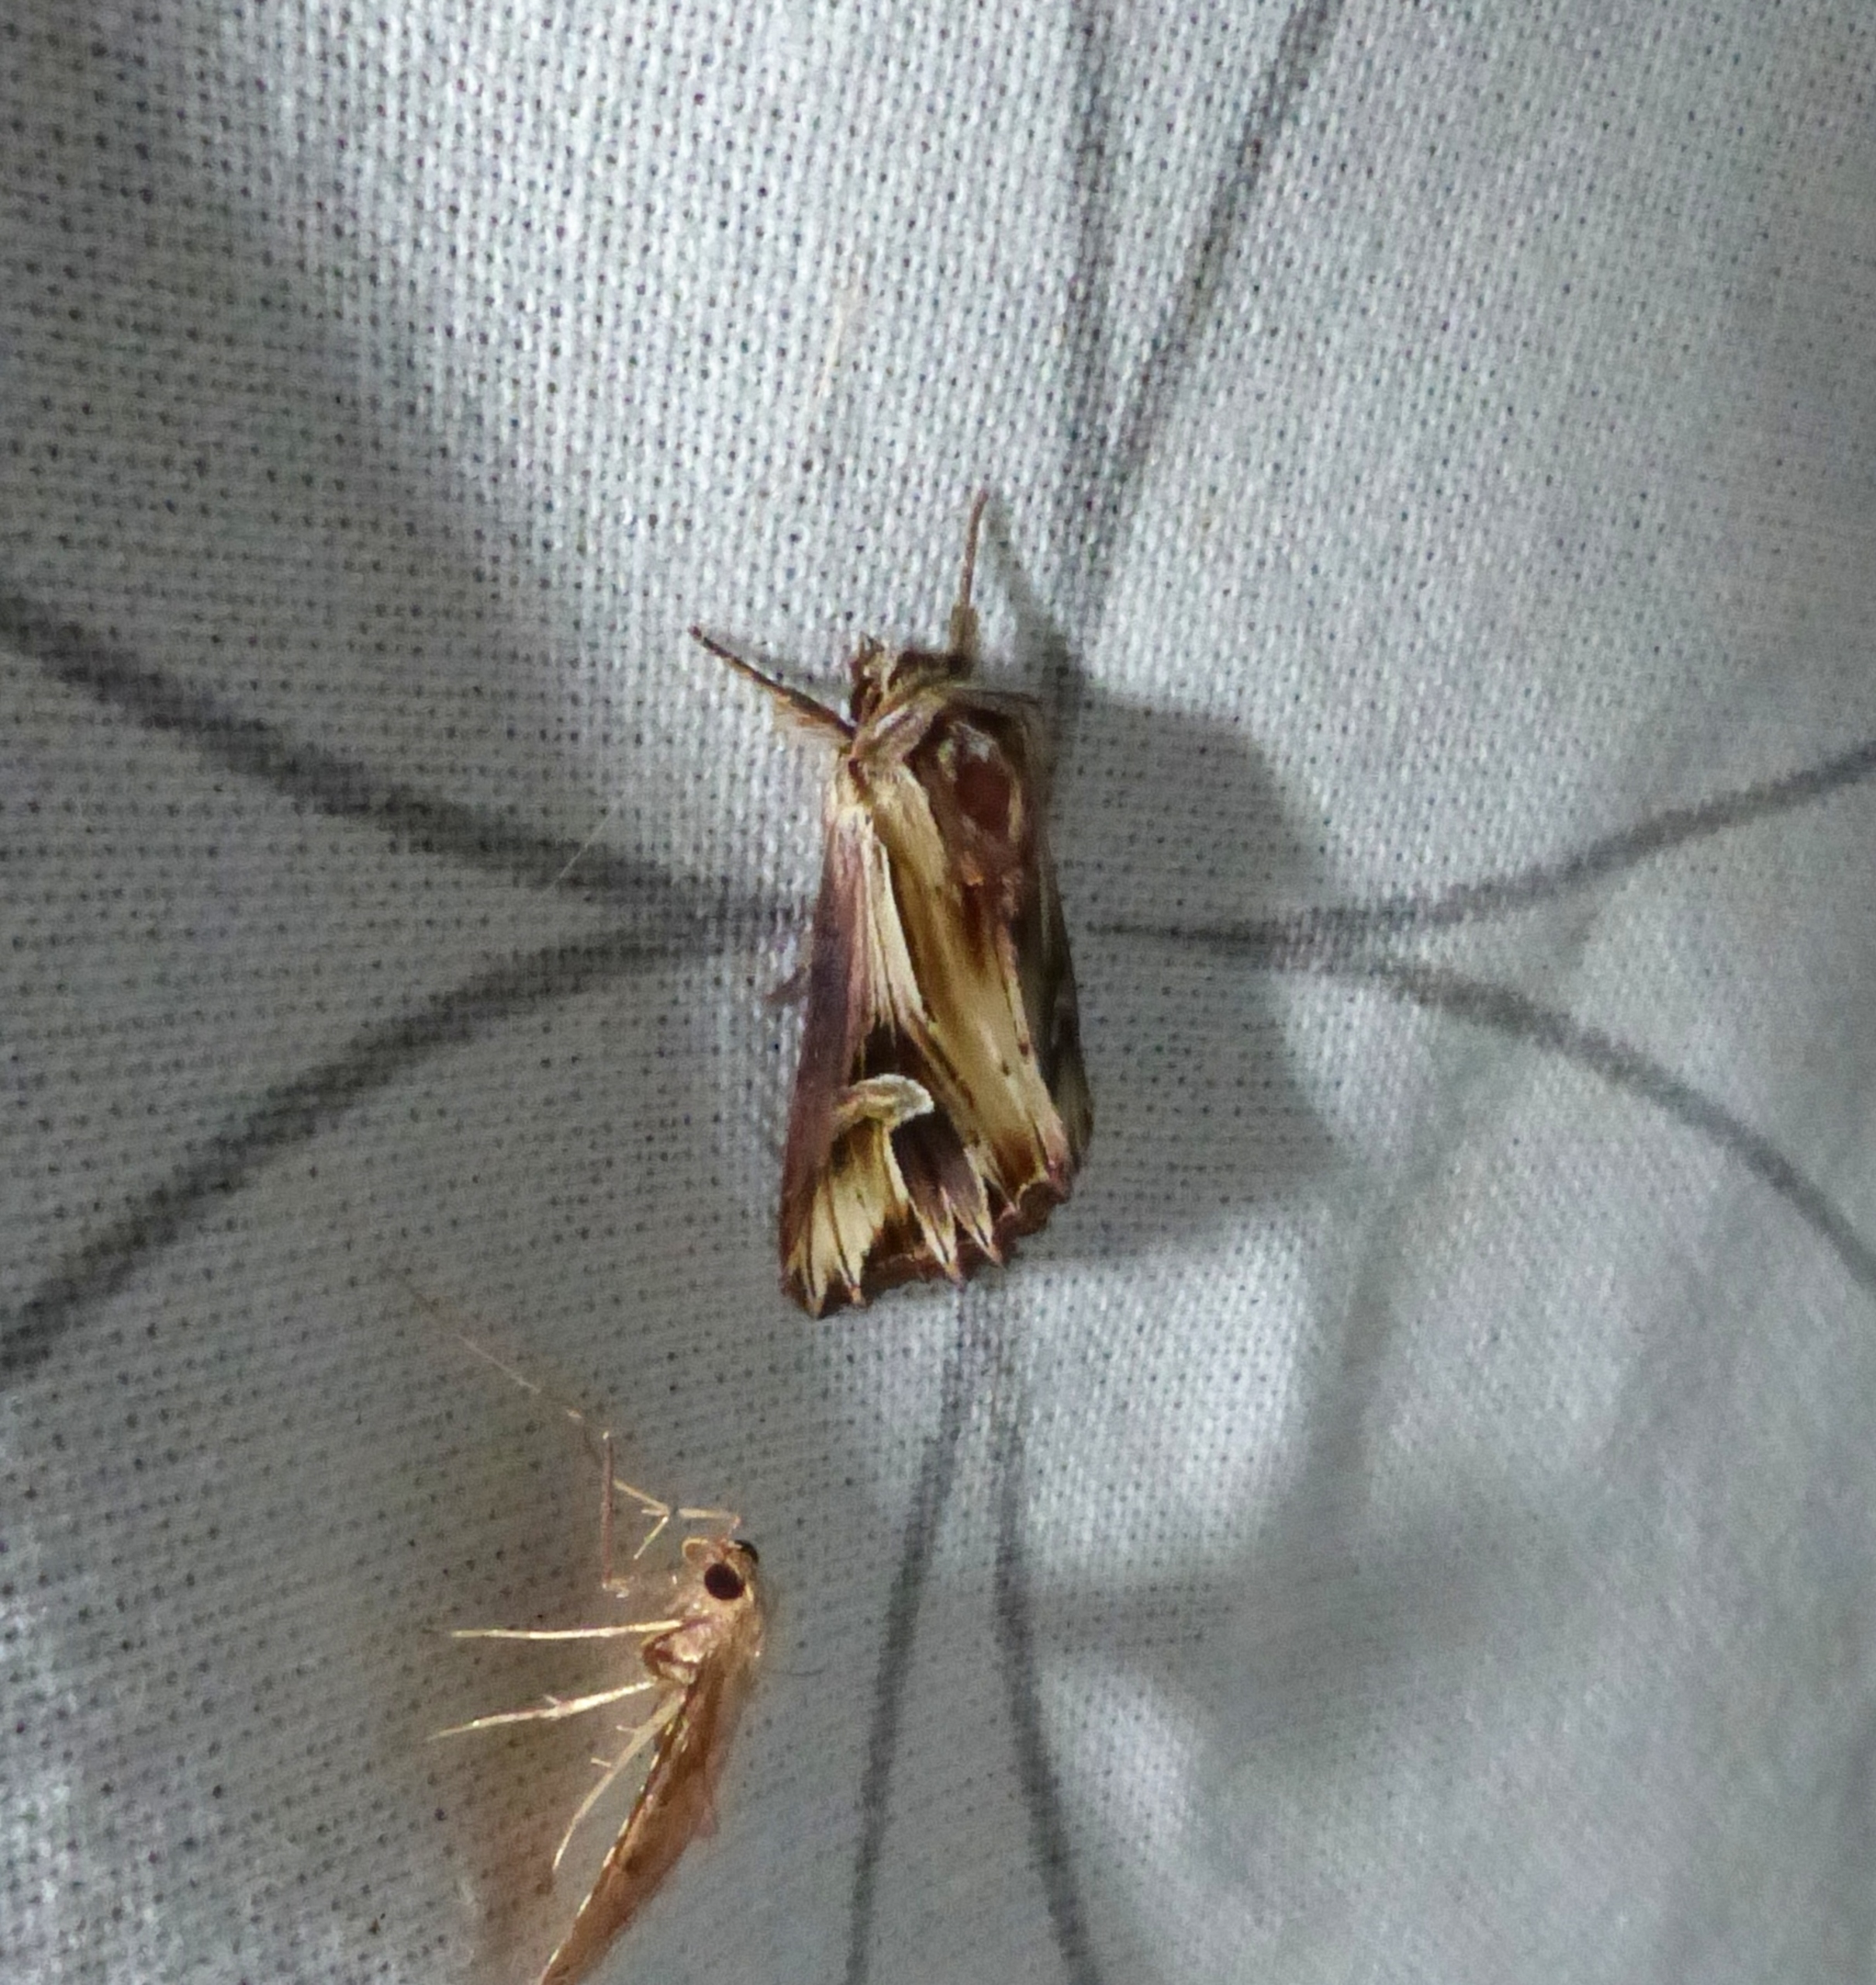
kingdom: Animalia
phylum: Arthropoda
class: Insecta
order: Lepidoptera
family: Noctuidae
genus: Actinotia
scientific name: Actinotia polyodon
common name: Lilla perikonugle
